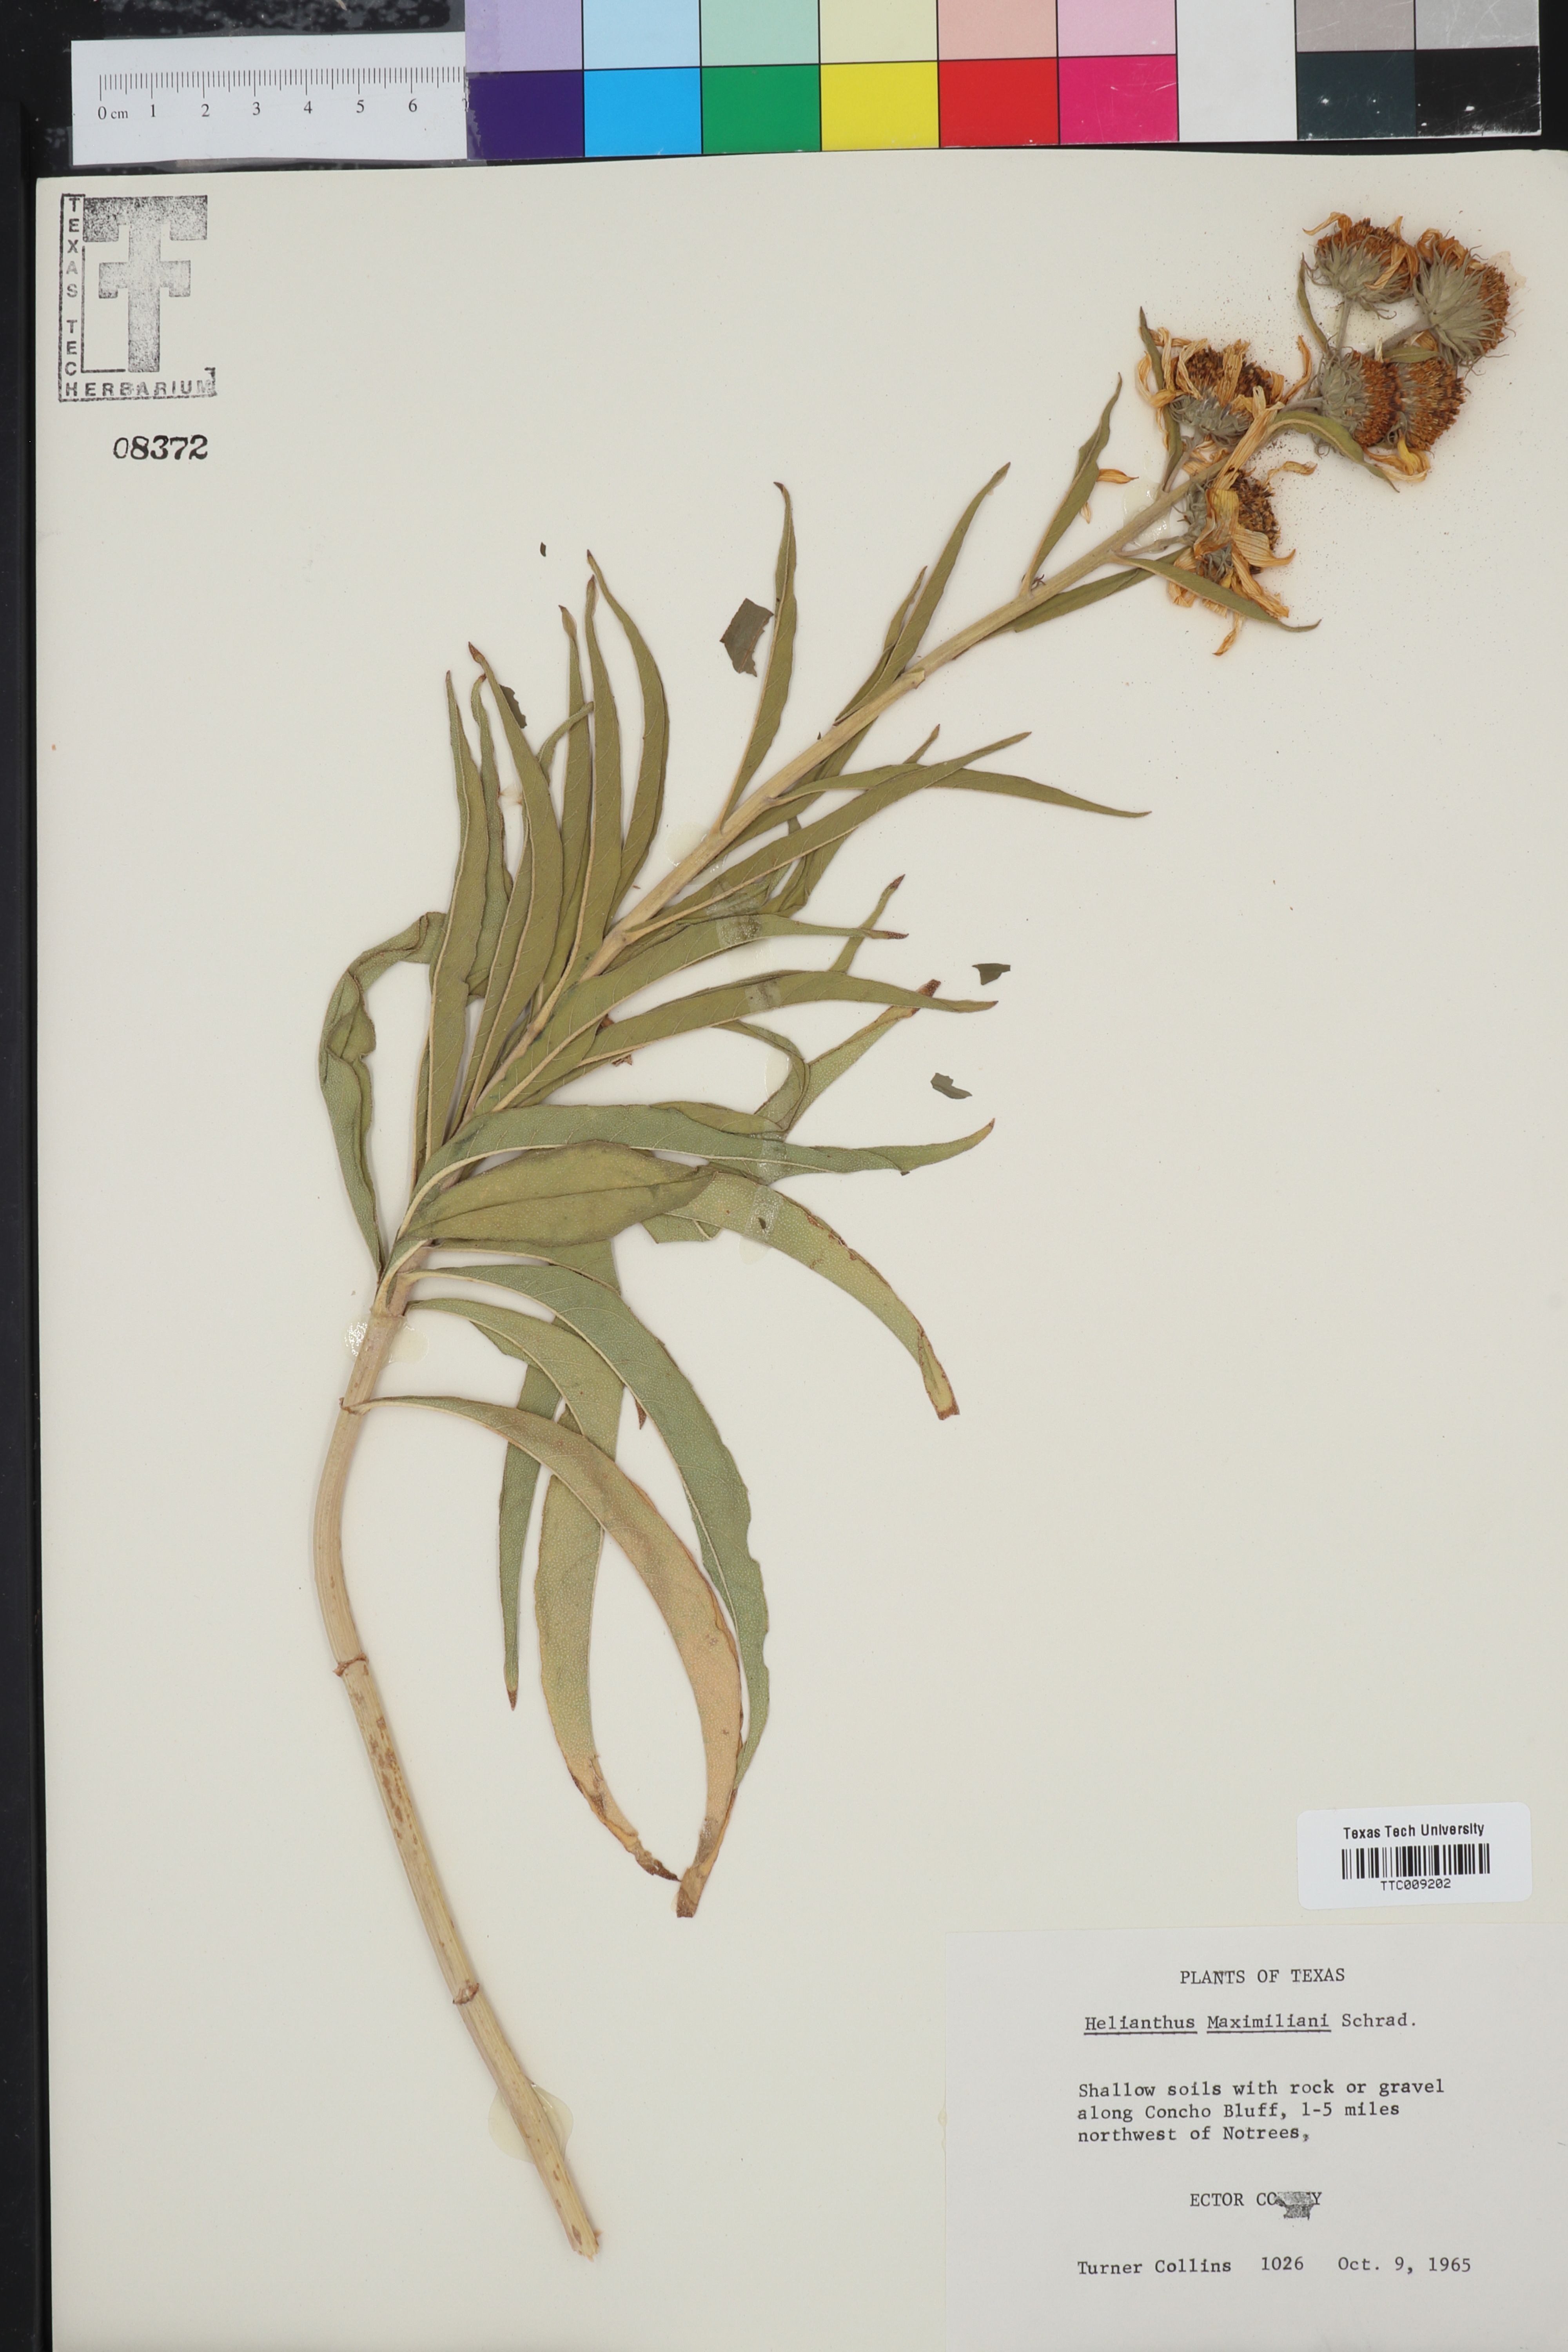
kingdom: Plantae
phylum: Tracheophyta
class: Magnoliopsida
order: Asterales
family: Asteraceae
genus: Helianthus
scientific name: Helianthus maximiliani
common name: Maximilian's sunflower
